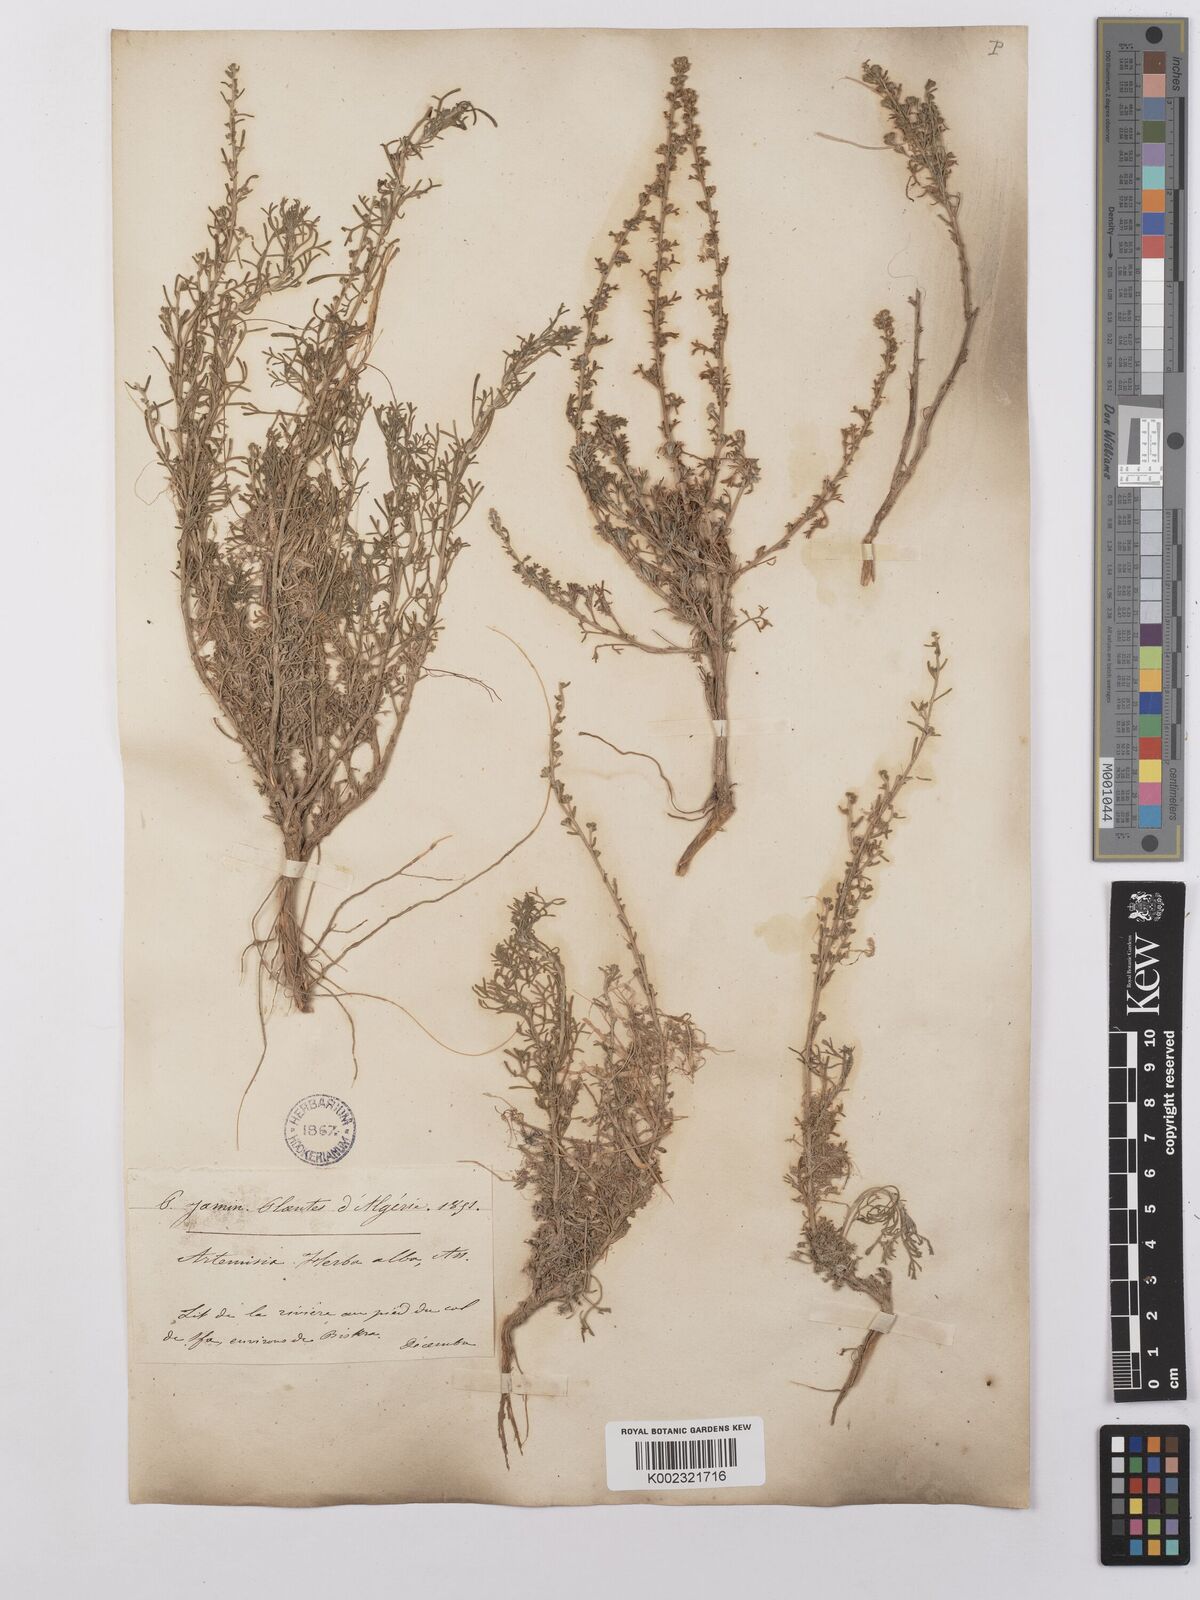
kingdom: Plantae
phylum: Tracheophyta
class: Magnoliopsida
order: Asterales
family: Asteraceae
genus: Artemisia
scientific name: Artemisia herba-alba
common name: White wormwood
